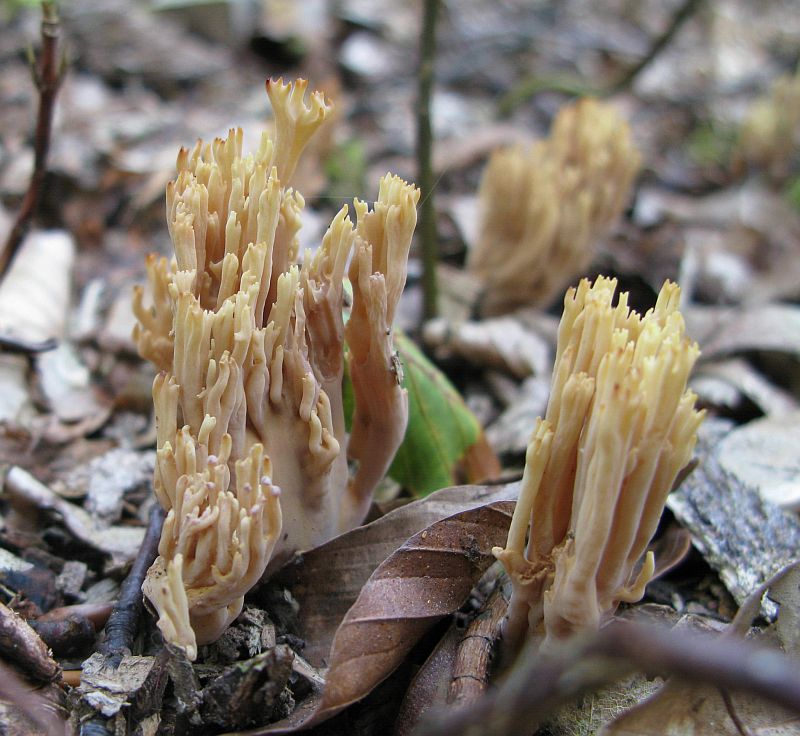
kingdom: Fungi
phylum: Basidiomycota
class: Agaricomycetes
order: Gomphales
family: Gomphaceae
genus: Ramaria
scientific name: Ramaria stricta
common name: rank koralsvamp
